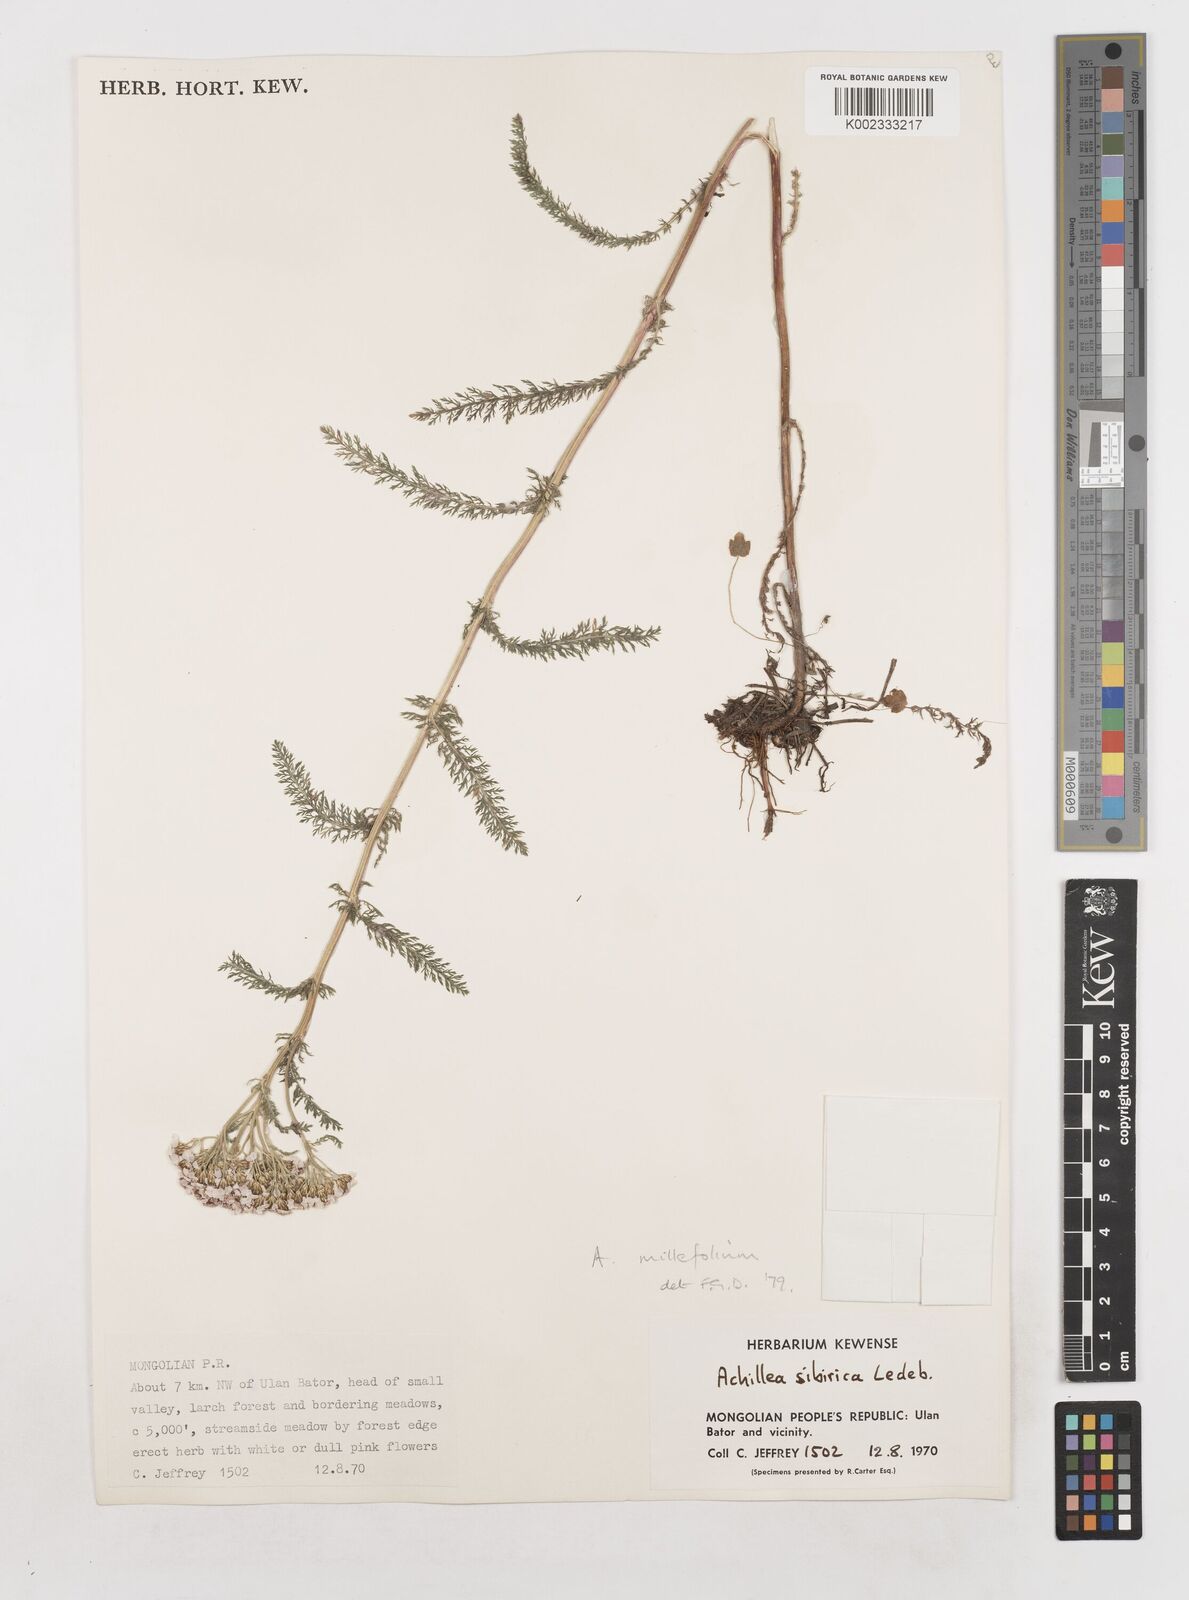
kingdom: Plantae
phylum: Tracheophyta
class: Magnoliopsida
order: Asterales
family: Asteraceae
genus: Achillea
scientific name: Achillea millefolium
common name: Yarrow
